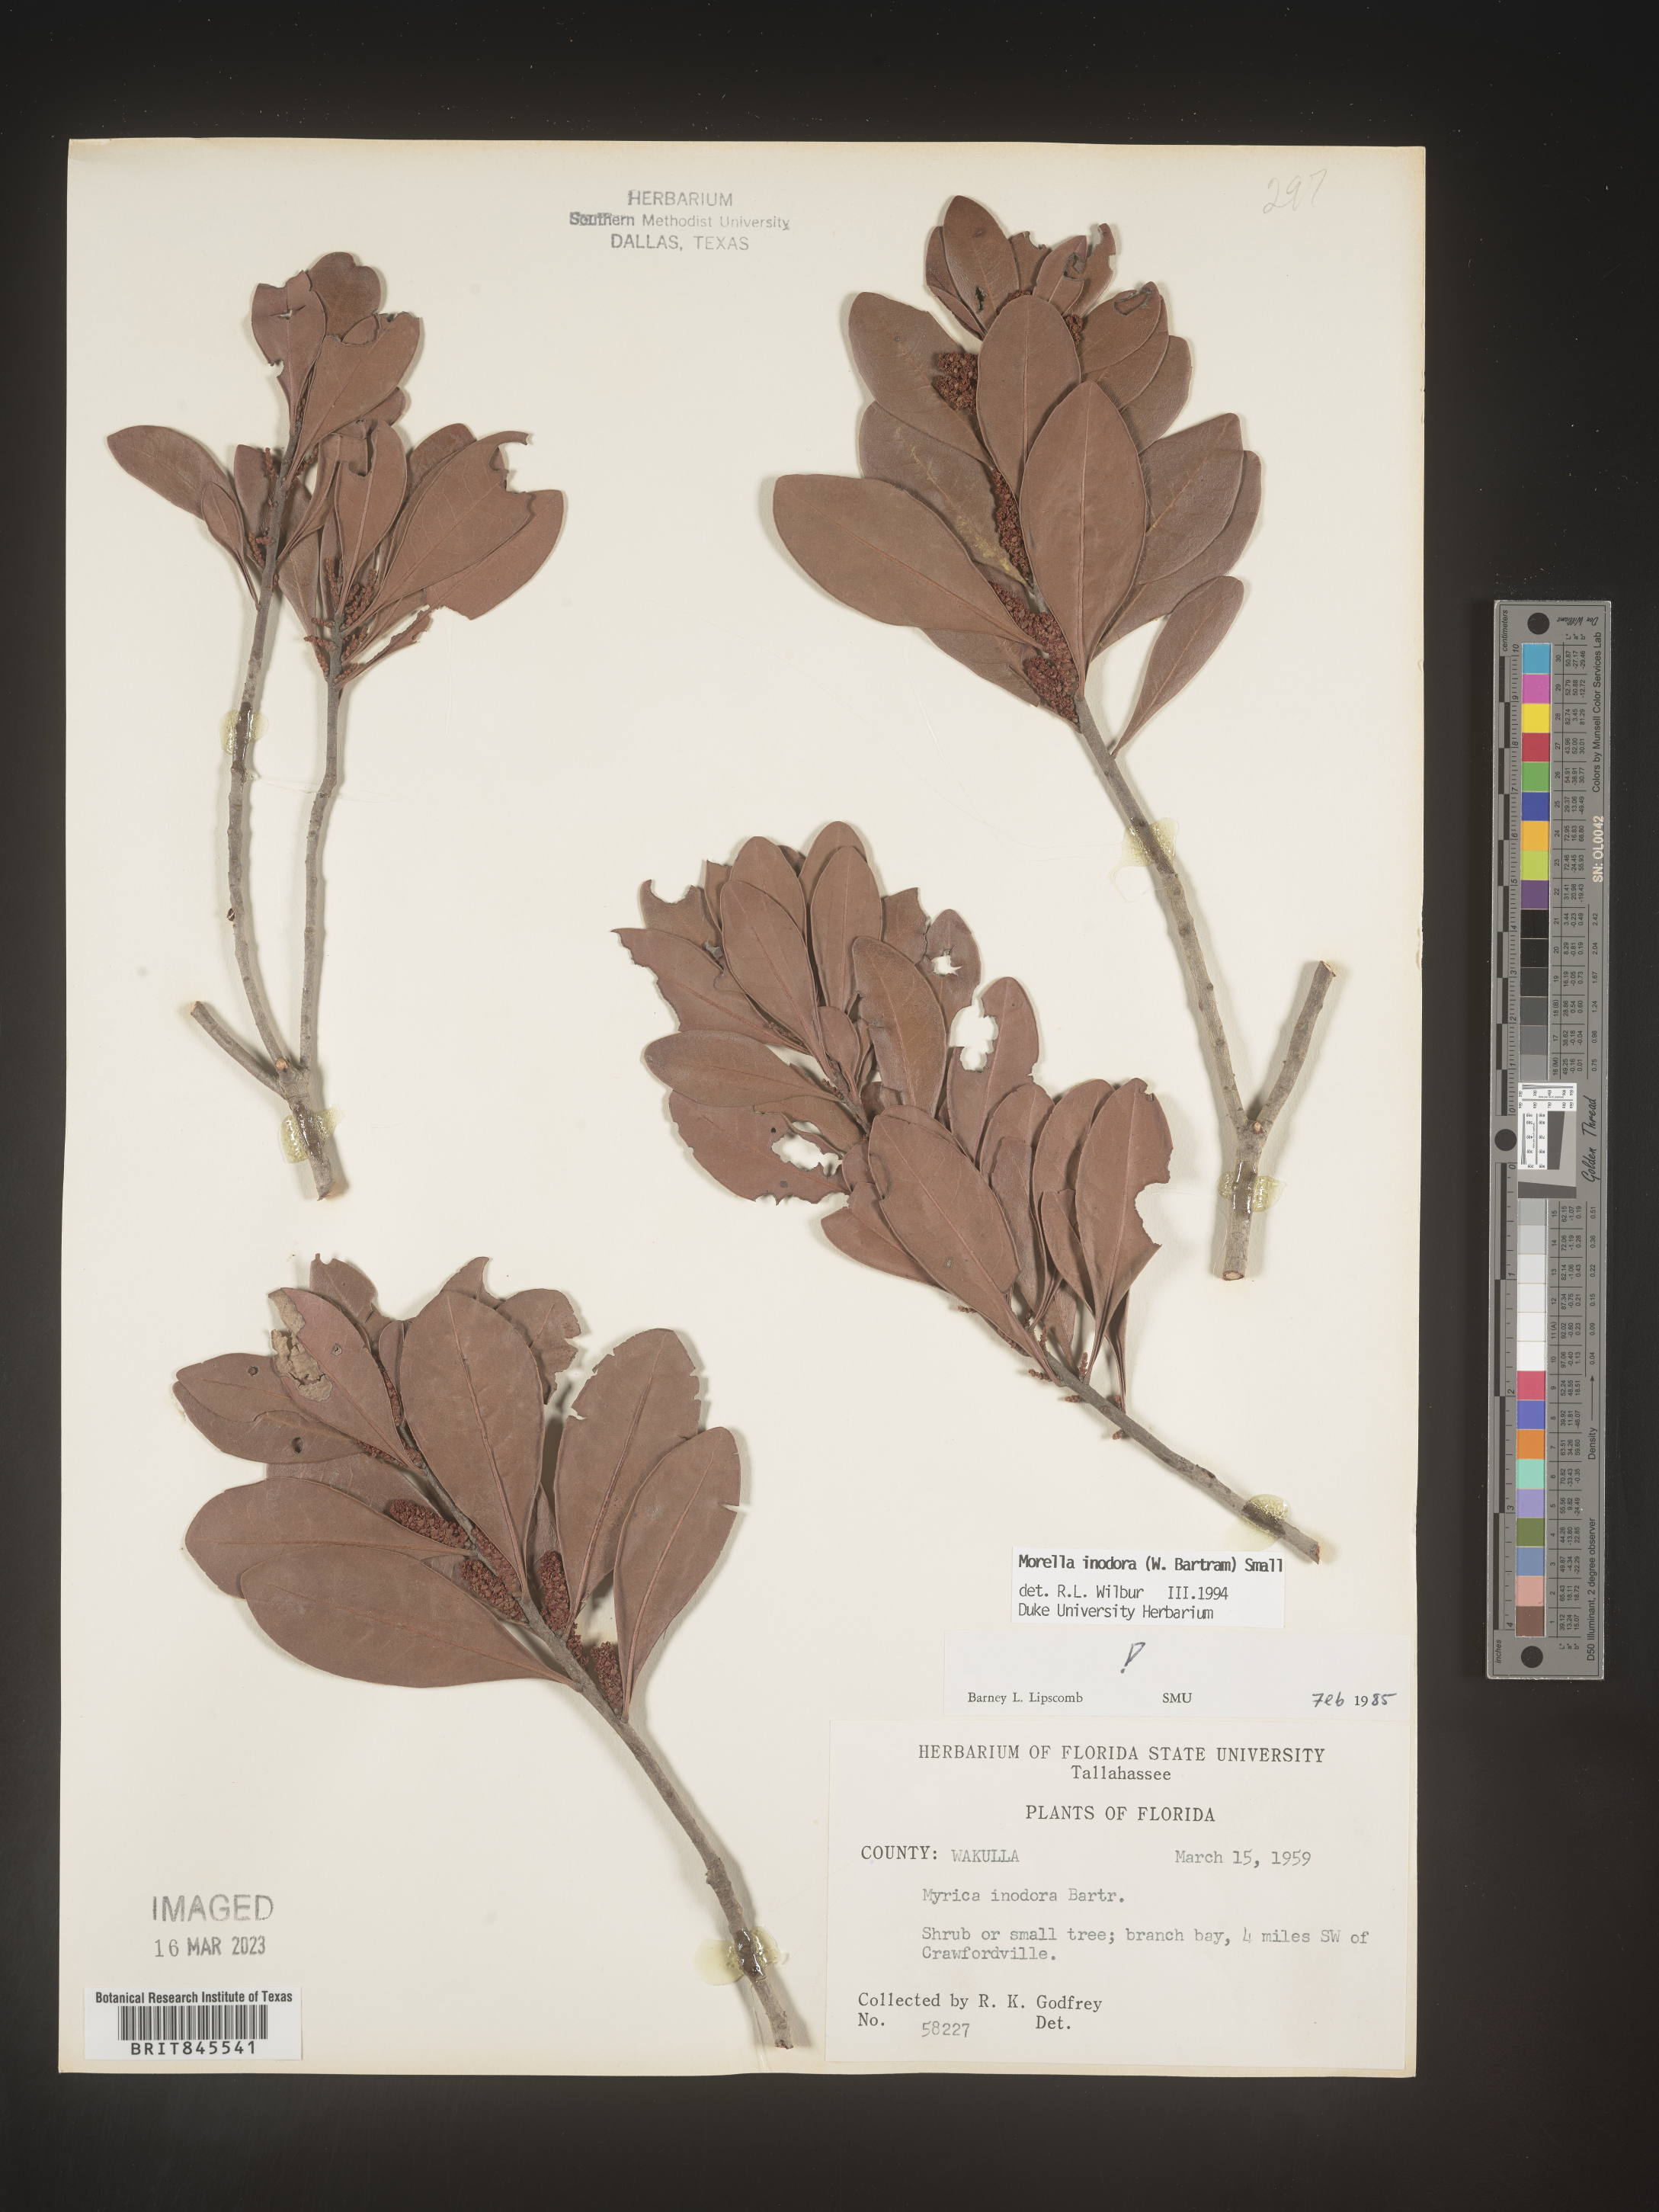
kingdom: Plantae
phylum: Tracheophyta
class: Magnoliopsida
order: Fagales
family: Myricaceae
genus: Myrica
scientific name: Myrica
